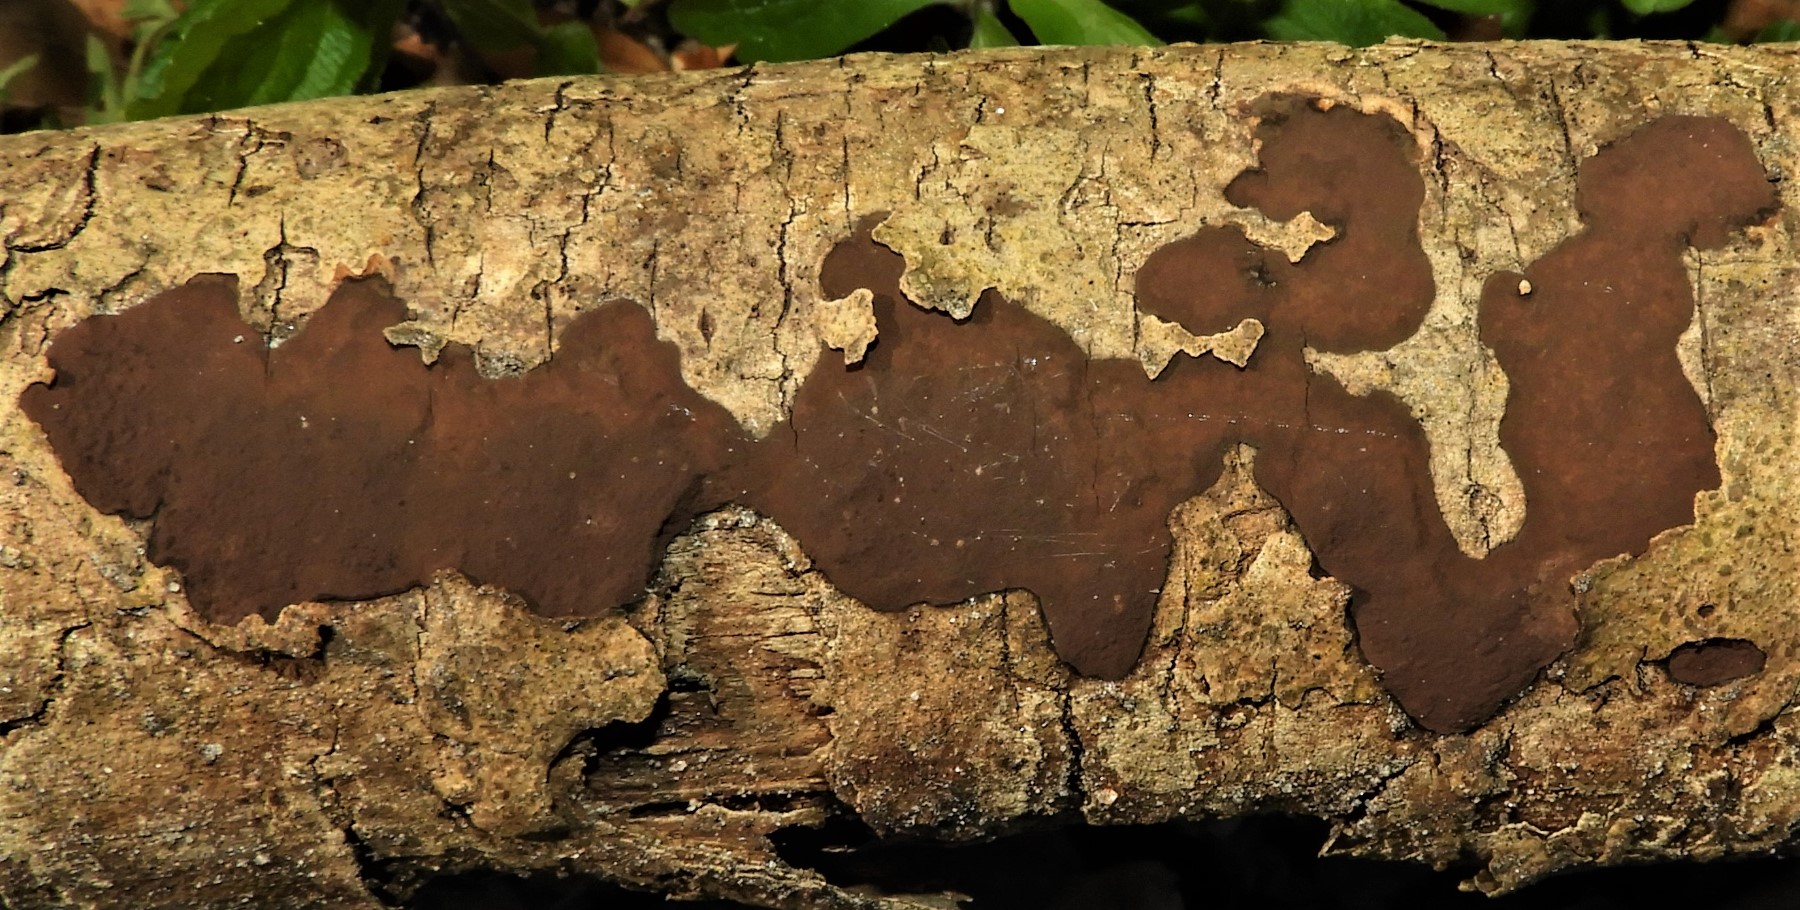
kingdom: Fungi
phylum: Ascomycota
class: Sordariomycetes
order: Xylariales
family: Hypoxylaceae
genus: Hypoxylon
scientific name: Hypoxylon petriniae
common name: nedsænket kulbær
